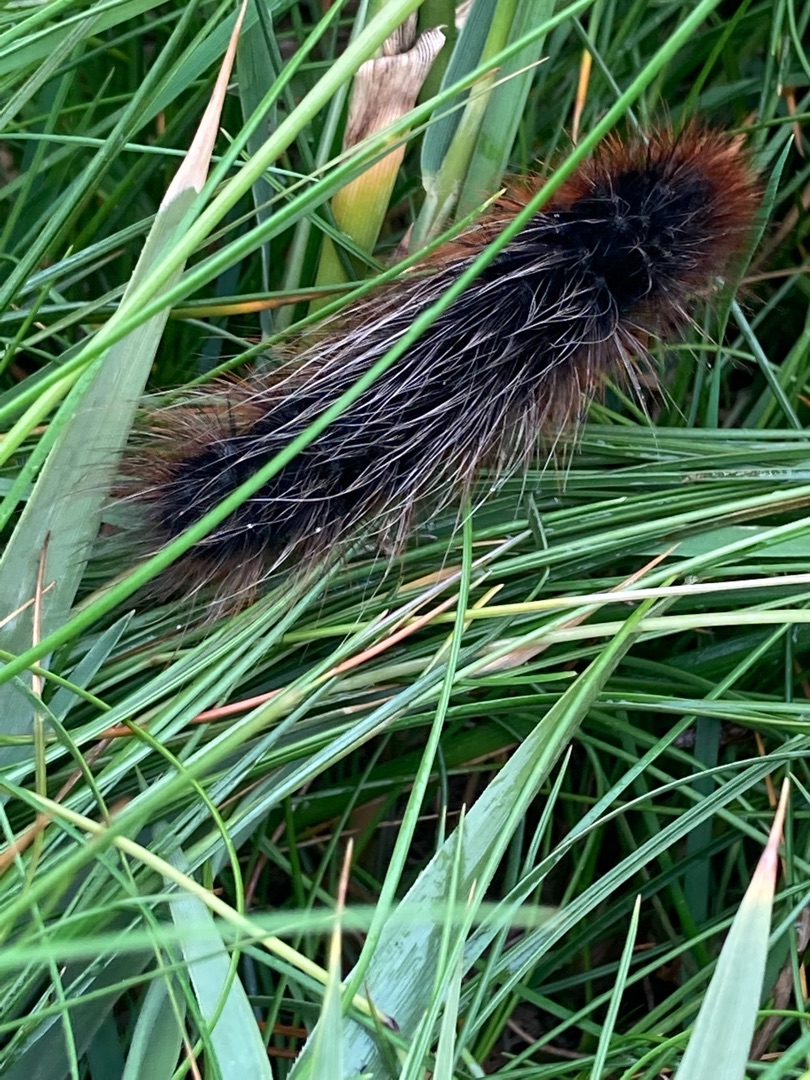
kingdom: Animalia
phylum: Arthropoda
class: Insecta
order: Lepidoptera
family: Erebidae
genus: Arctia
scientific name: Arctia caja
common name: Brun bjørn
